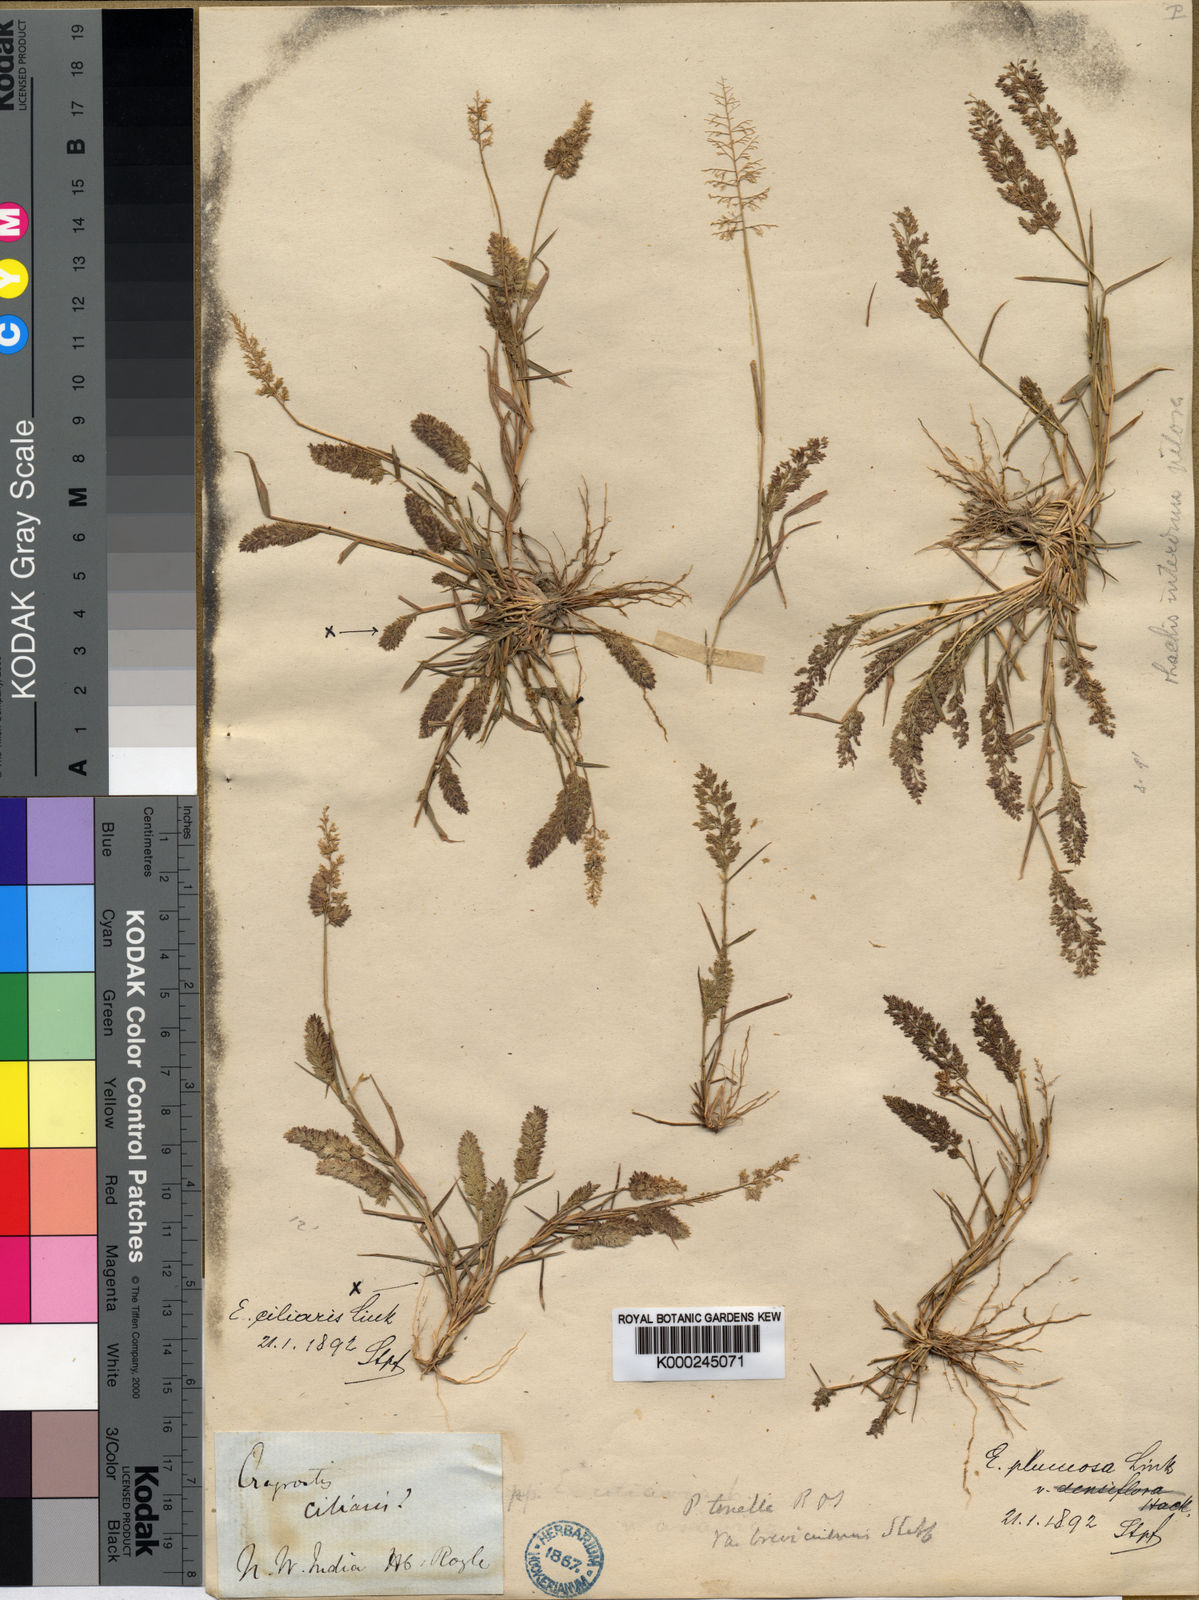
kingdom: Plantae
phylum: Tracheophyta
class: Liliopsida
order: Poales
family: Poaceae
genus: Eragrostis
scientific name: Eragrostis tenella
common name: Japanese lovegrass
